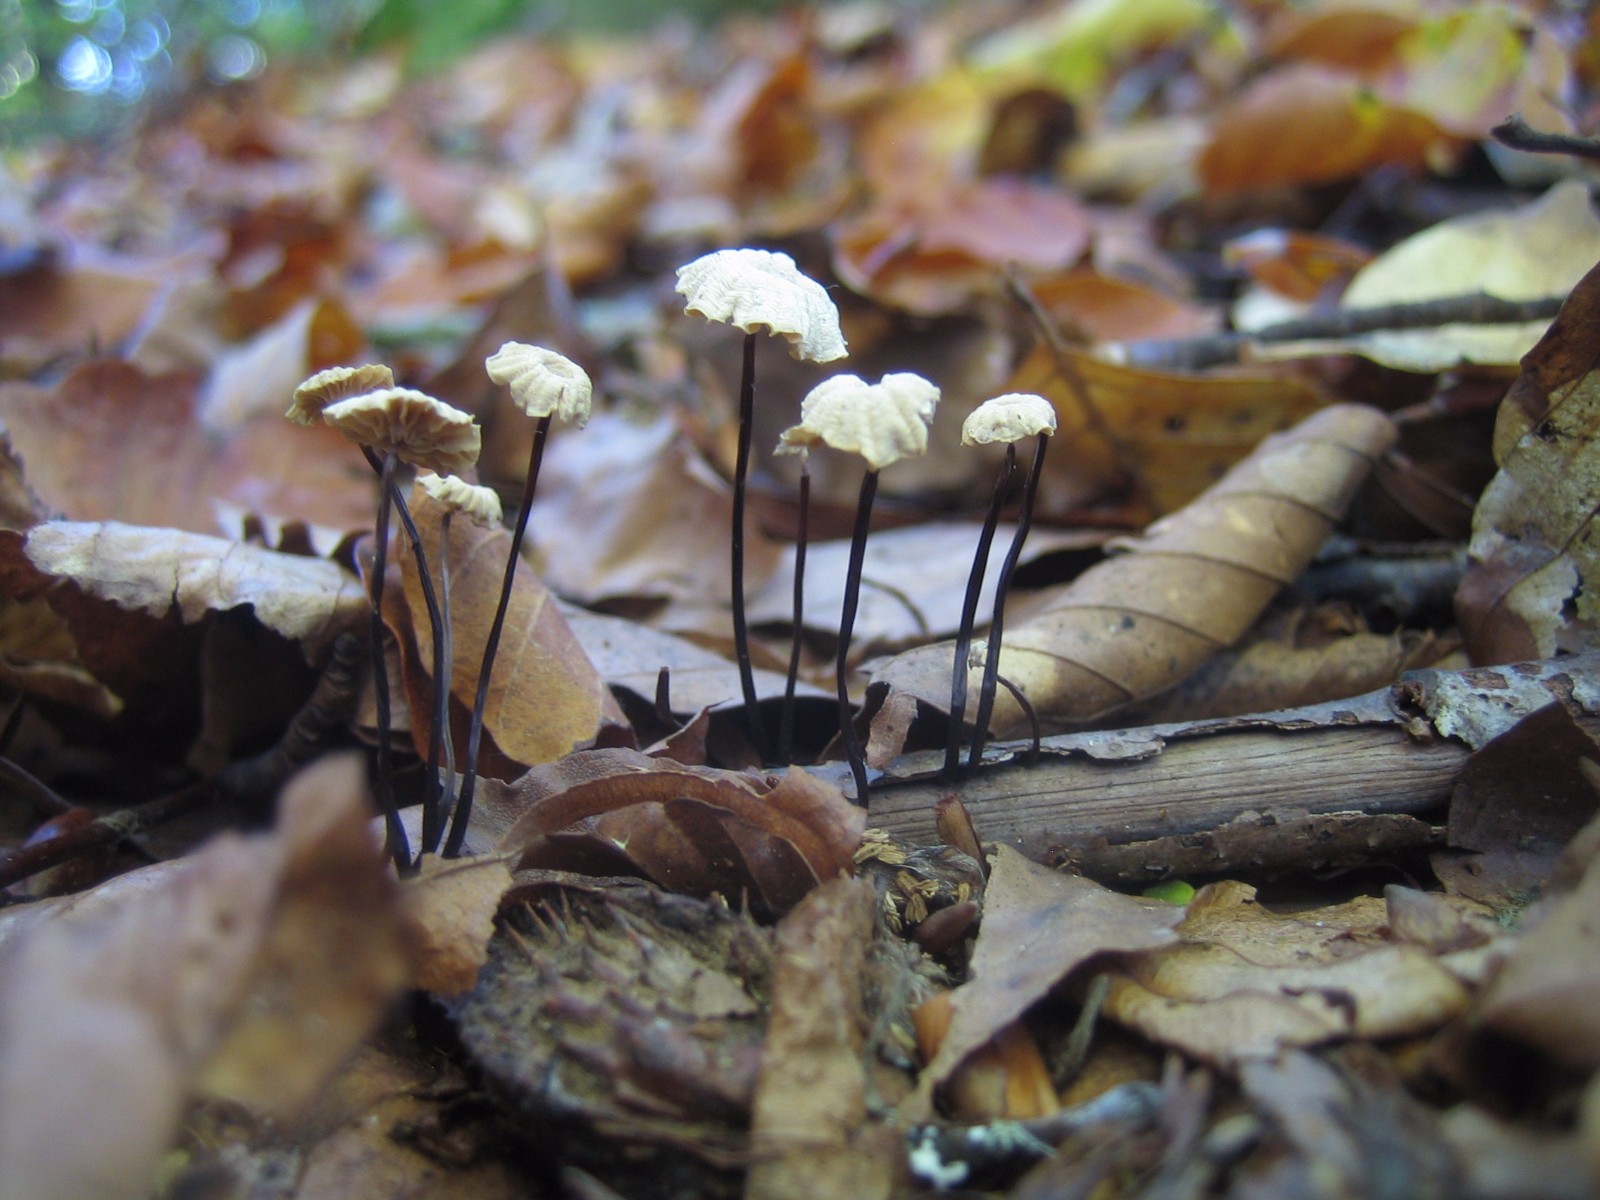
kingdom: Fungi
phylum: Basidiomycota
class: Agaricomycetes
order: Agaricales
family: Marasmiaceae
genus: Marasmius
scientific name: Marasmius rotula
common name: hjul-bruskhat
